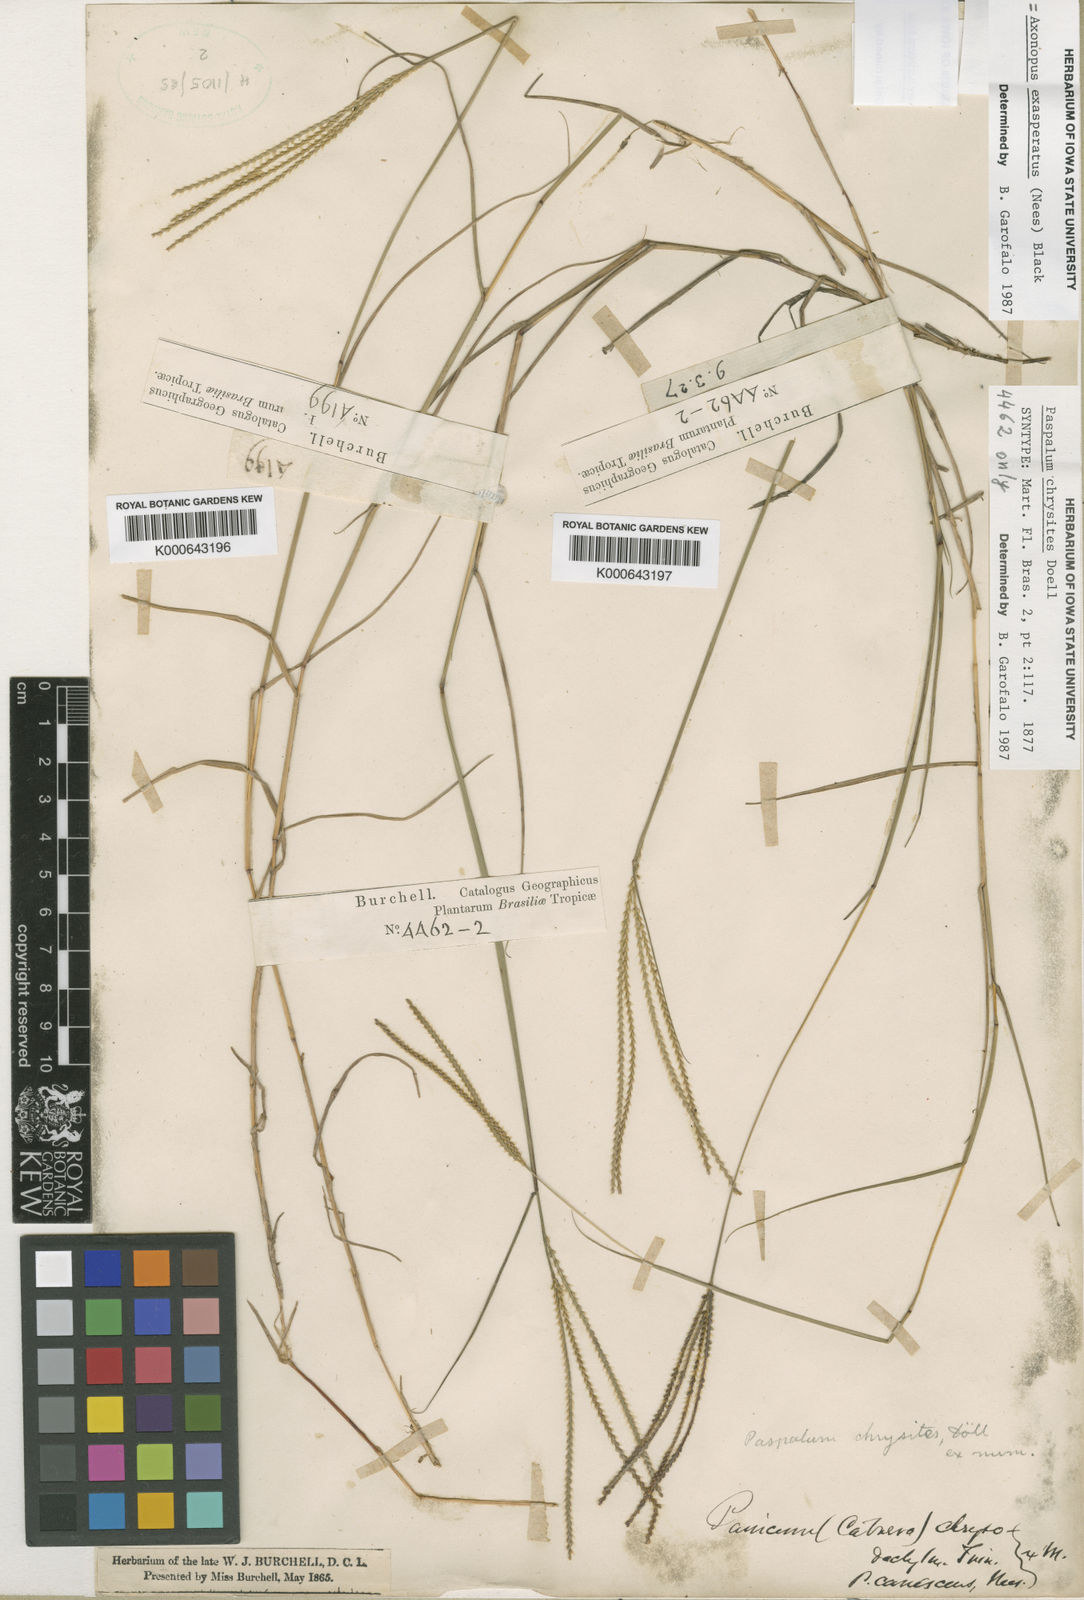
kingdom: Plantae
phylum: Tracheophyta
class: Liliopsida
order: Poales
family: Poaceae
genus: Axonopus
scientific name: Axonopus aureus
